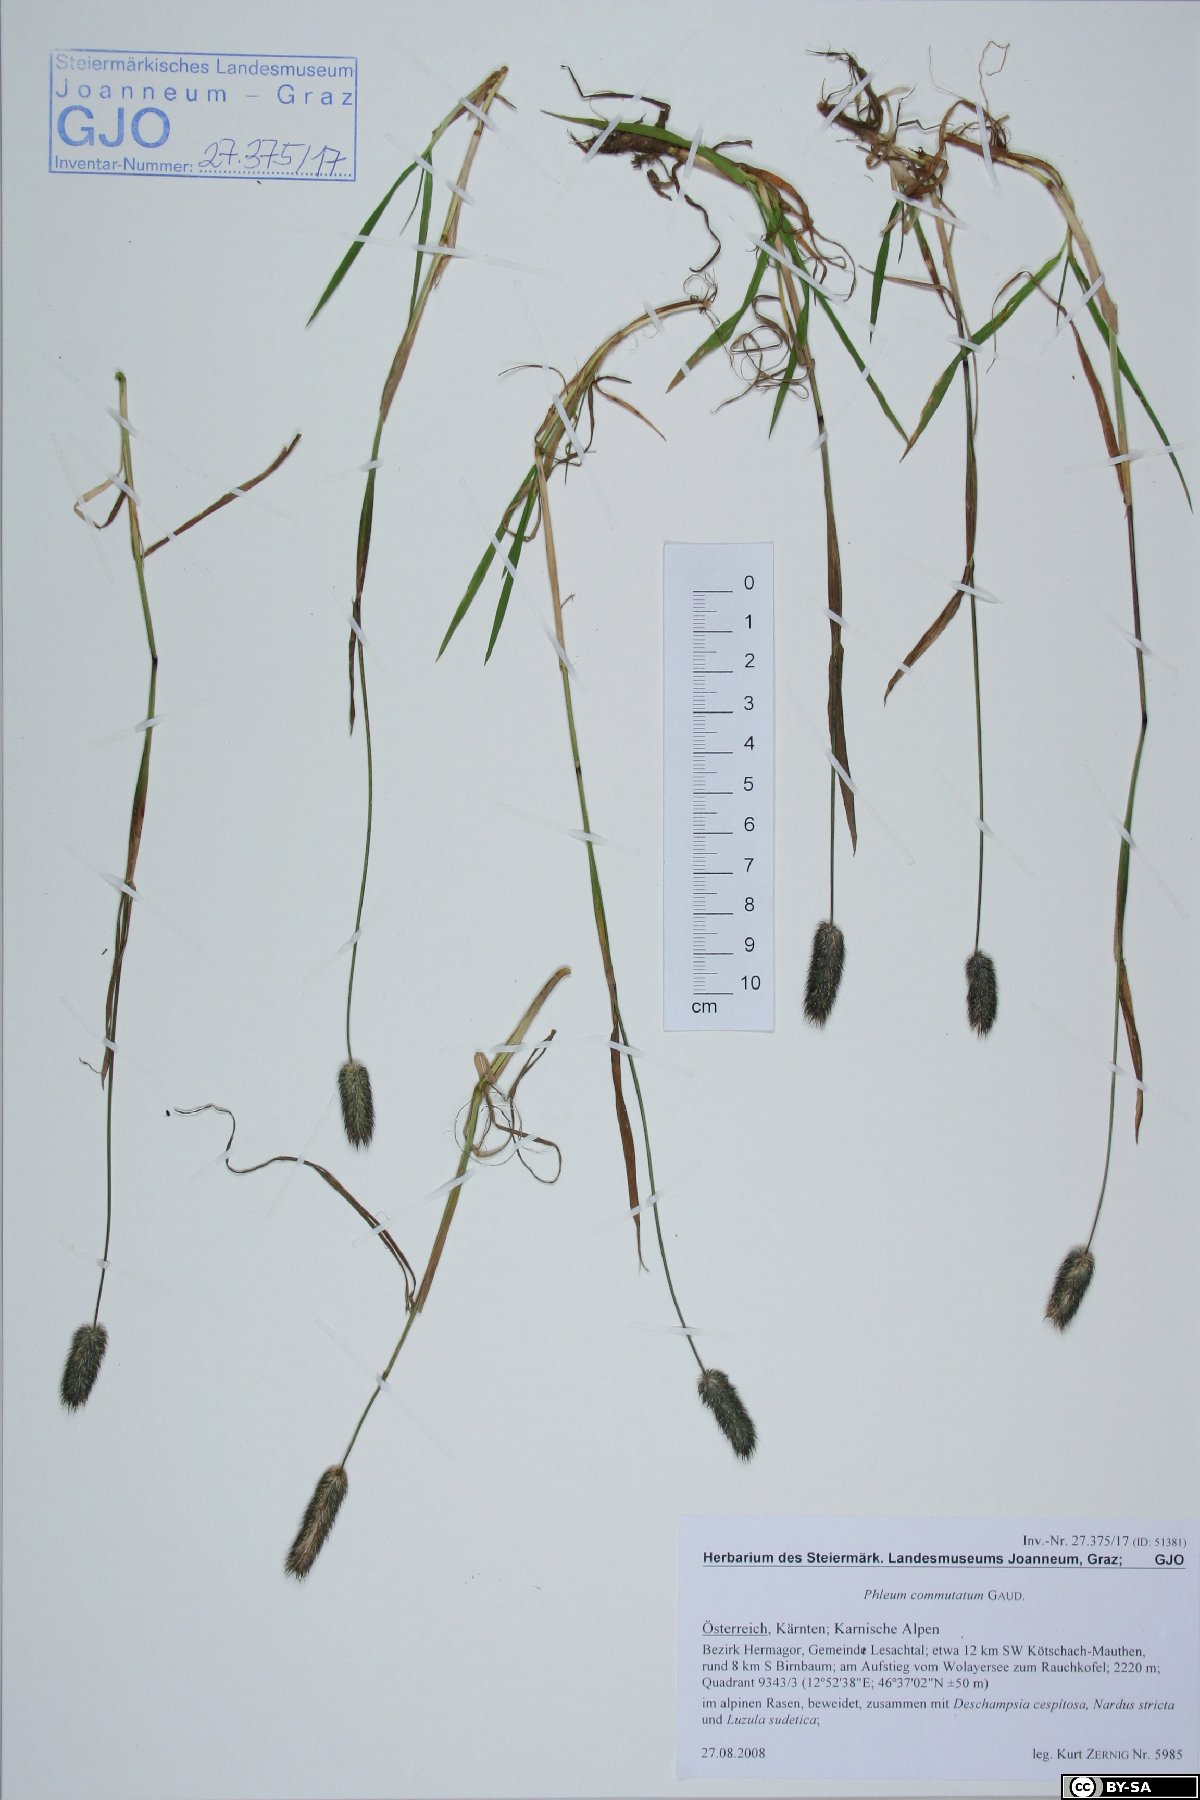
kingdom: Plantae
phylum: Tracheophyta
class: Liliopsida
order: Poales
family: Poaceae
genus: Phleum
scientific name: Phleum alpinum
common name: Alpine cat's-tail
